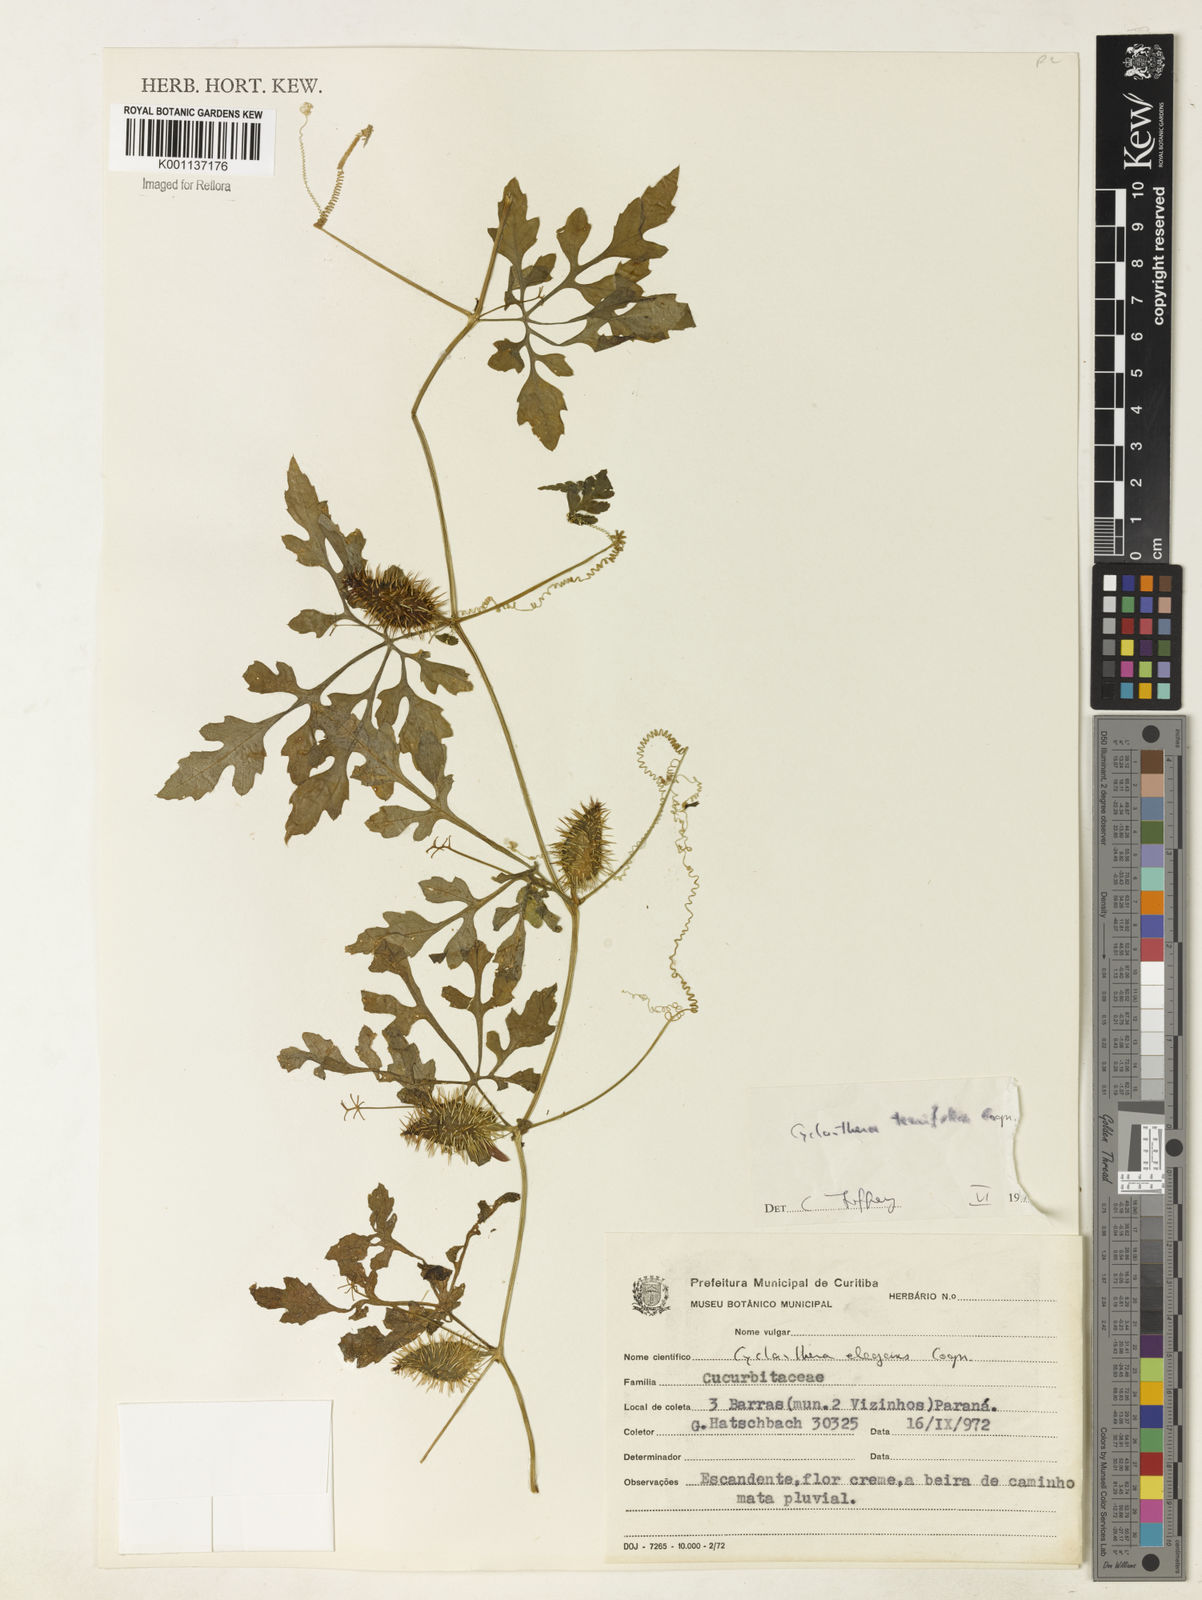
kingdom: Plantae
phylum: Tracheophyta
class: Magnoliopsida
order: Cucurbitales
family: Cucurbitaceae
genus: Cyclanthera
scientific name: Cyclanthera tenuisepala
